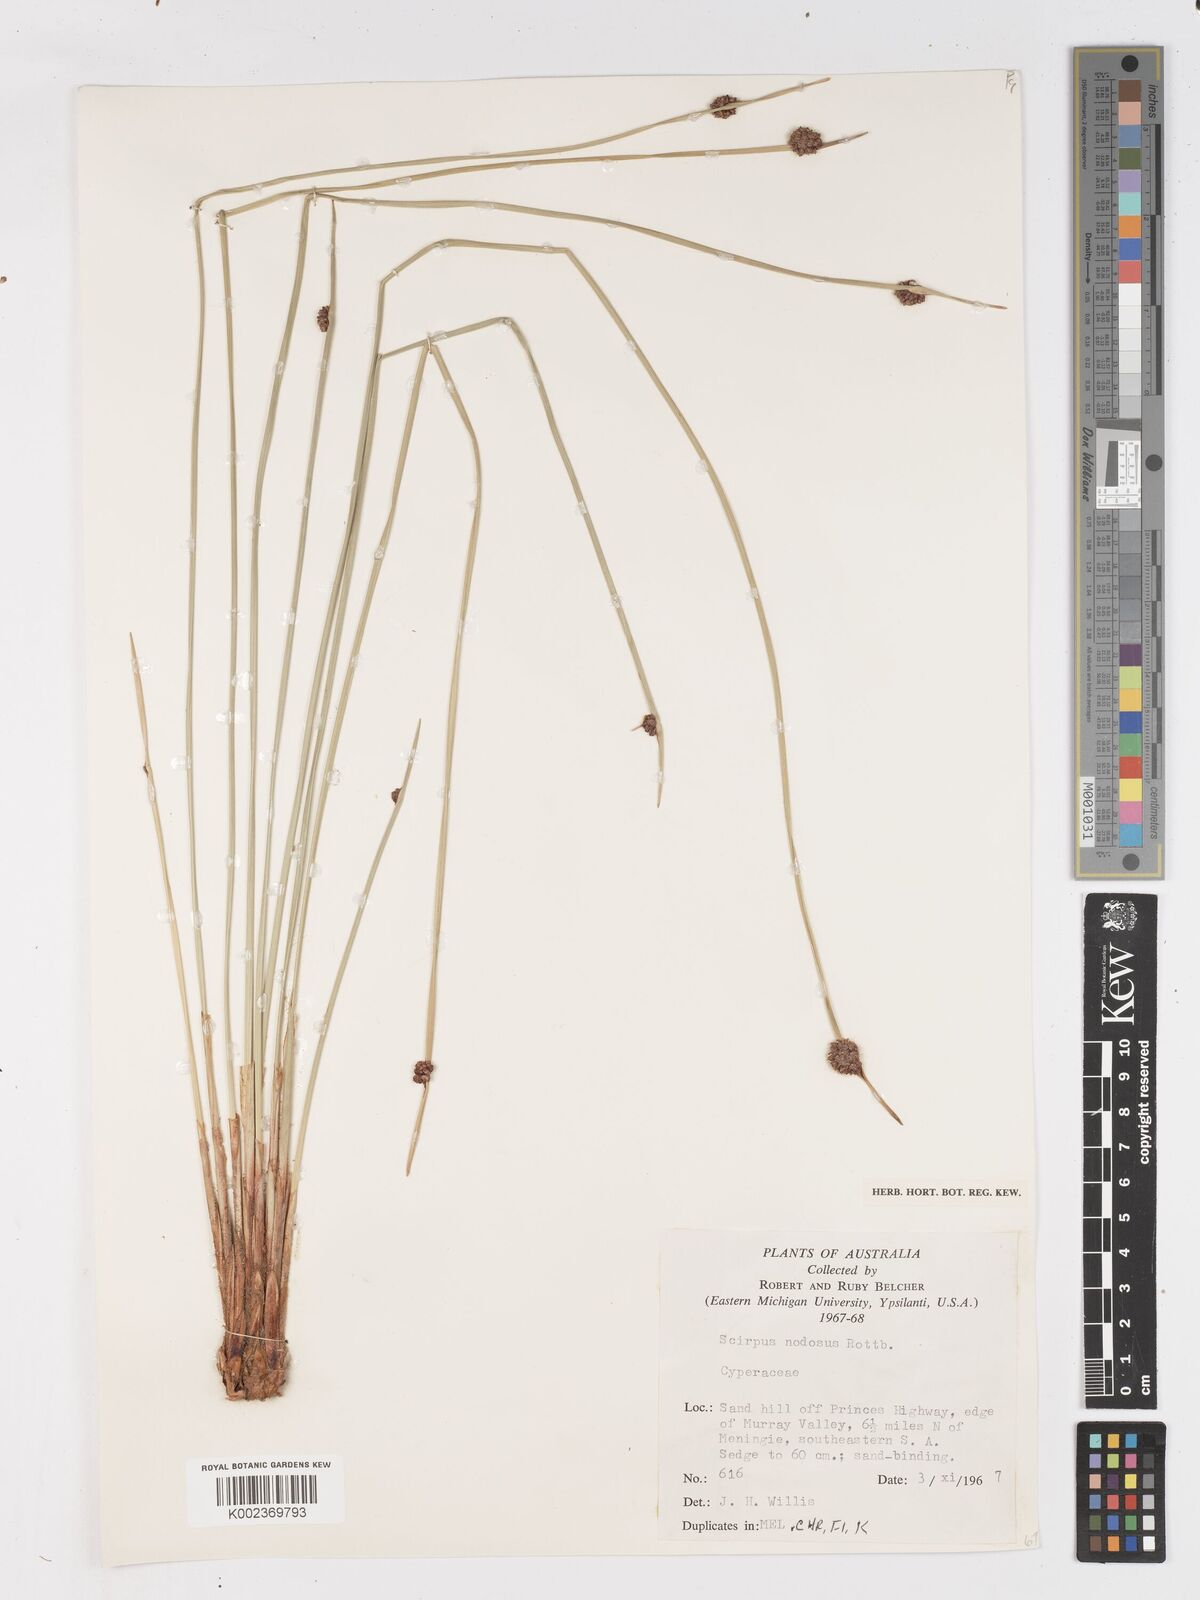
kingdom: Plantae
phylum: Tracheophyta
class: Liliopsida
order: Poales
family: Cyperaceae
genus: Ficinia
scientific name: Ficinia nodosa
